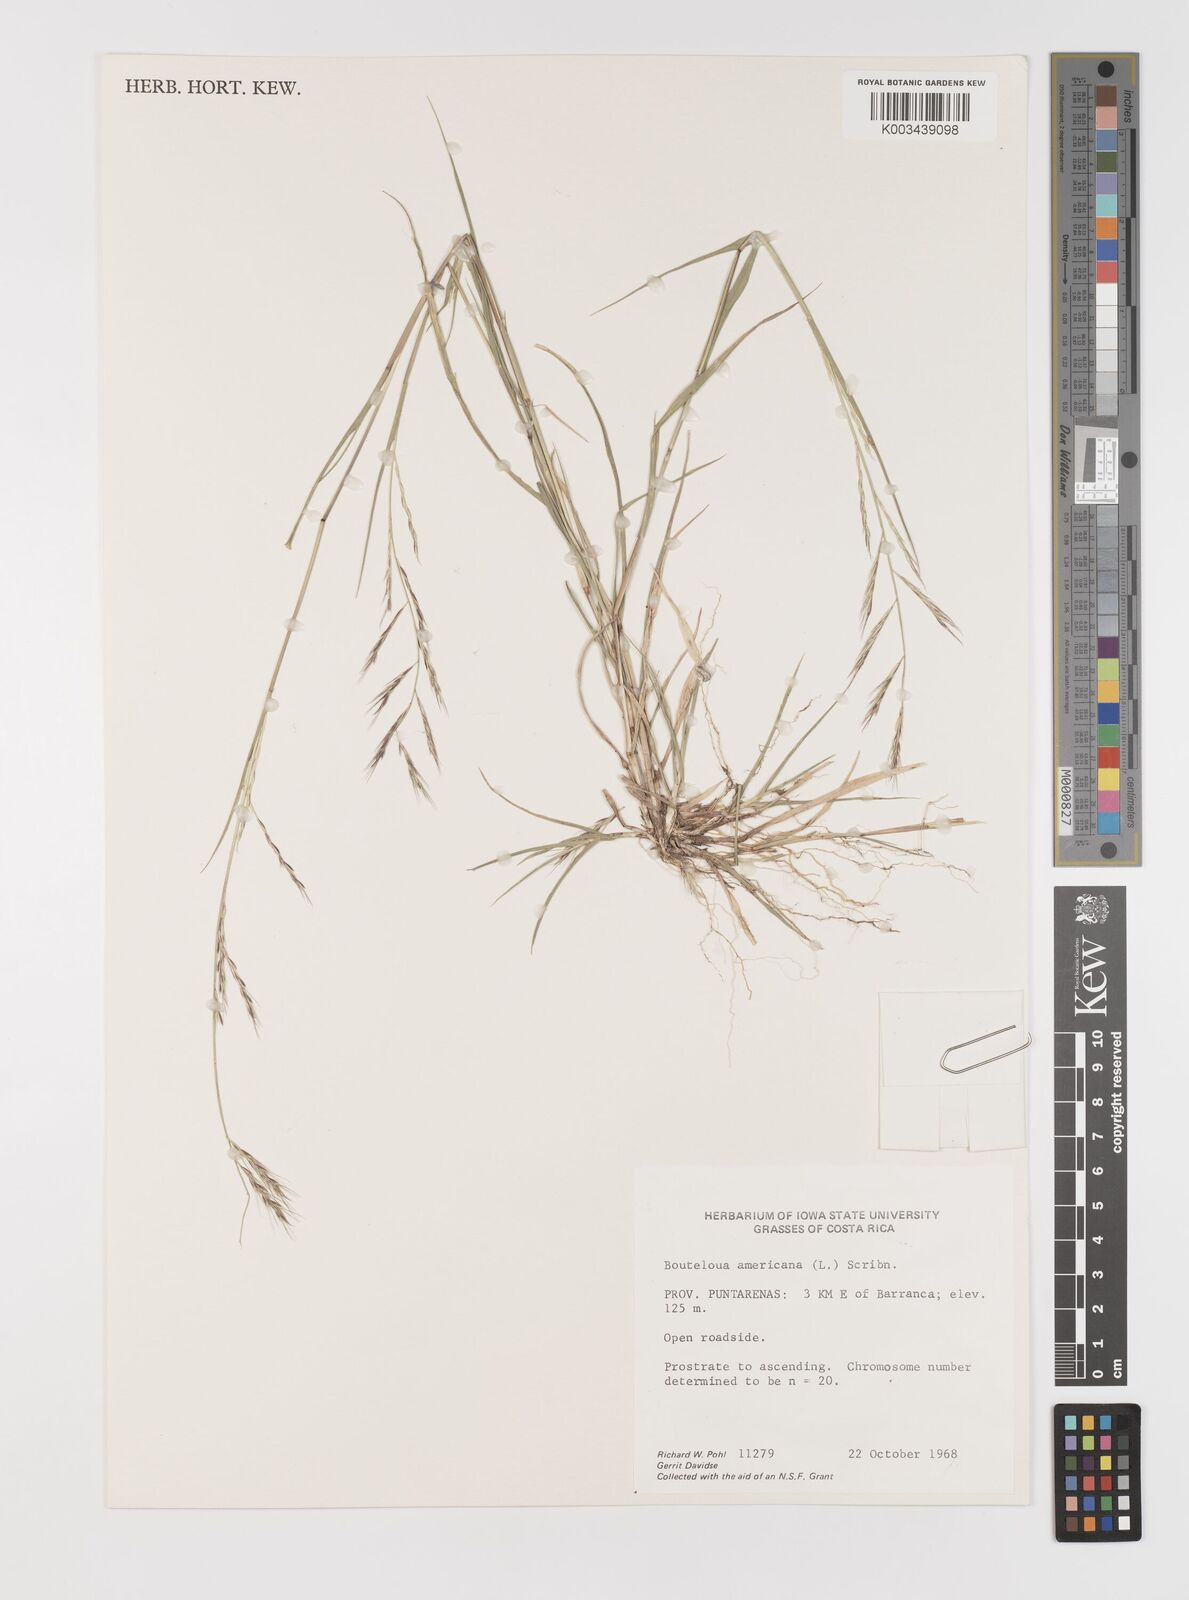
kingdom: Plantae
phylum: Tracheophyta
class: Liliopsida
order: Poales
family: Poaceae
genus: Bouteloua
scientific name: Bouteloua americana
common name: Mule grass
